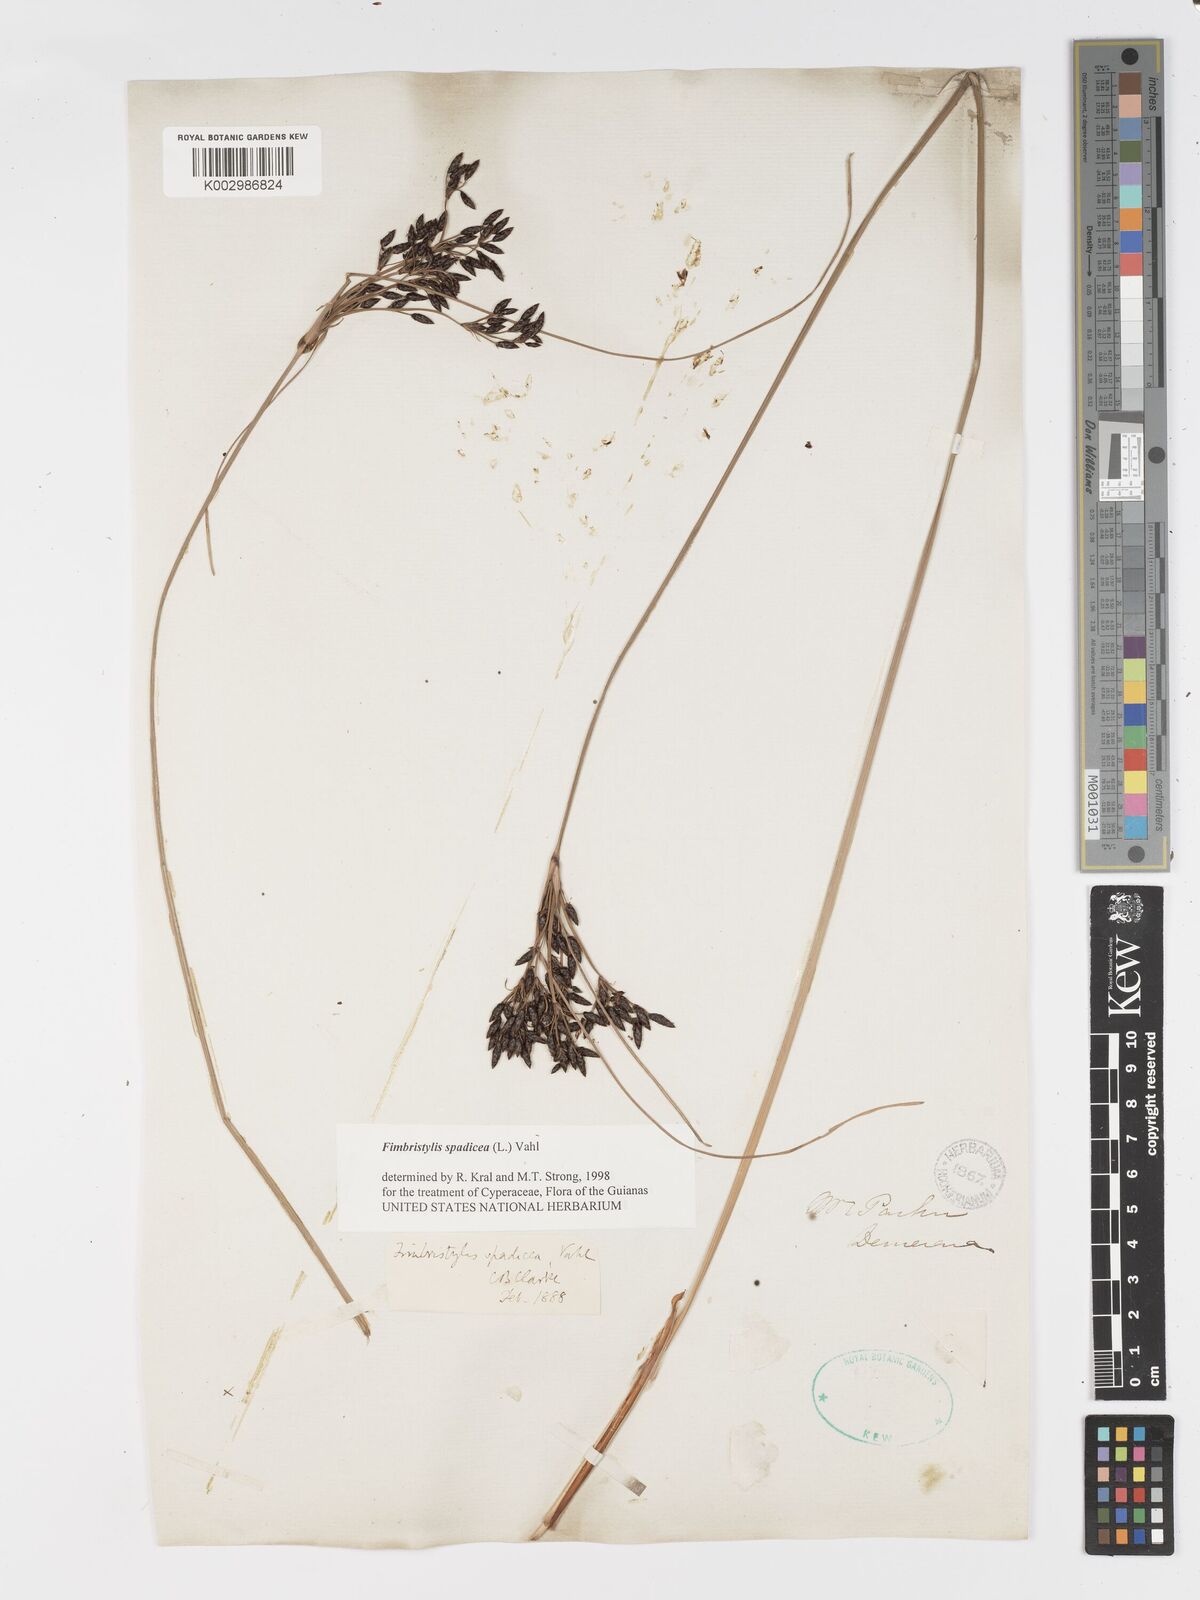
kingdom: Plantae
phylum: Tracheophyta
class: Liliopsida
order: Poales
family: Cyperaceae
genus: Fimbristylis
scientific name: Fimbristylis spadicea
